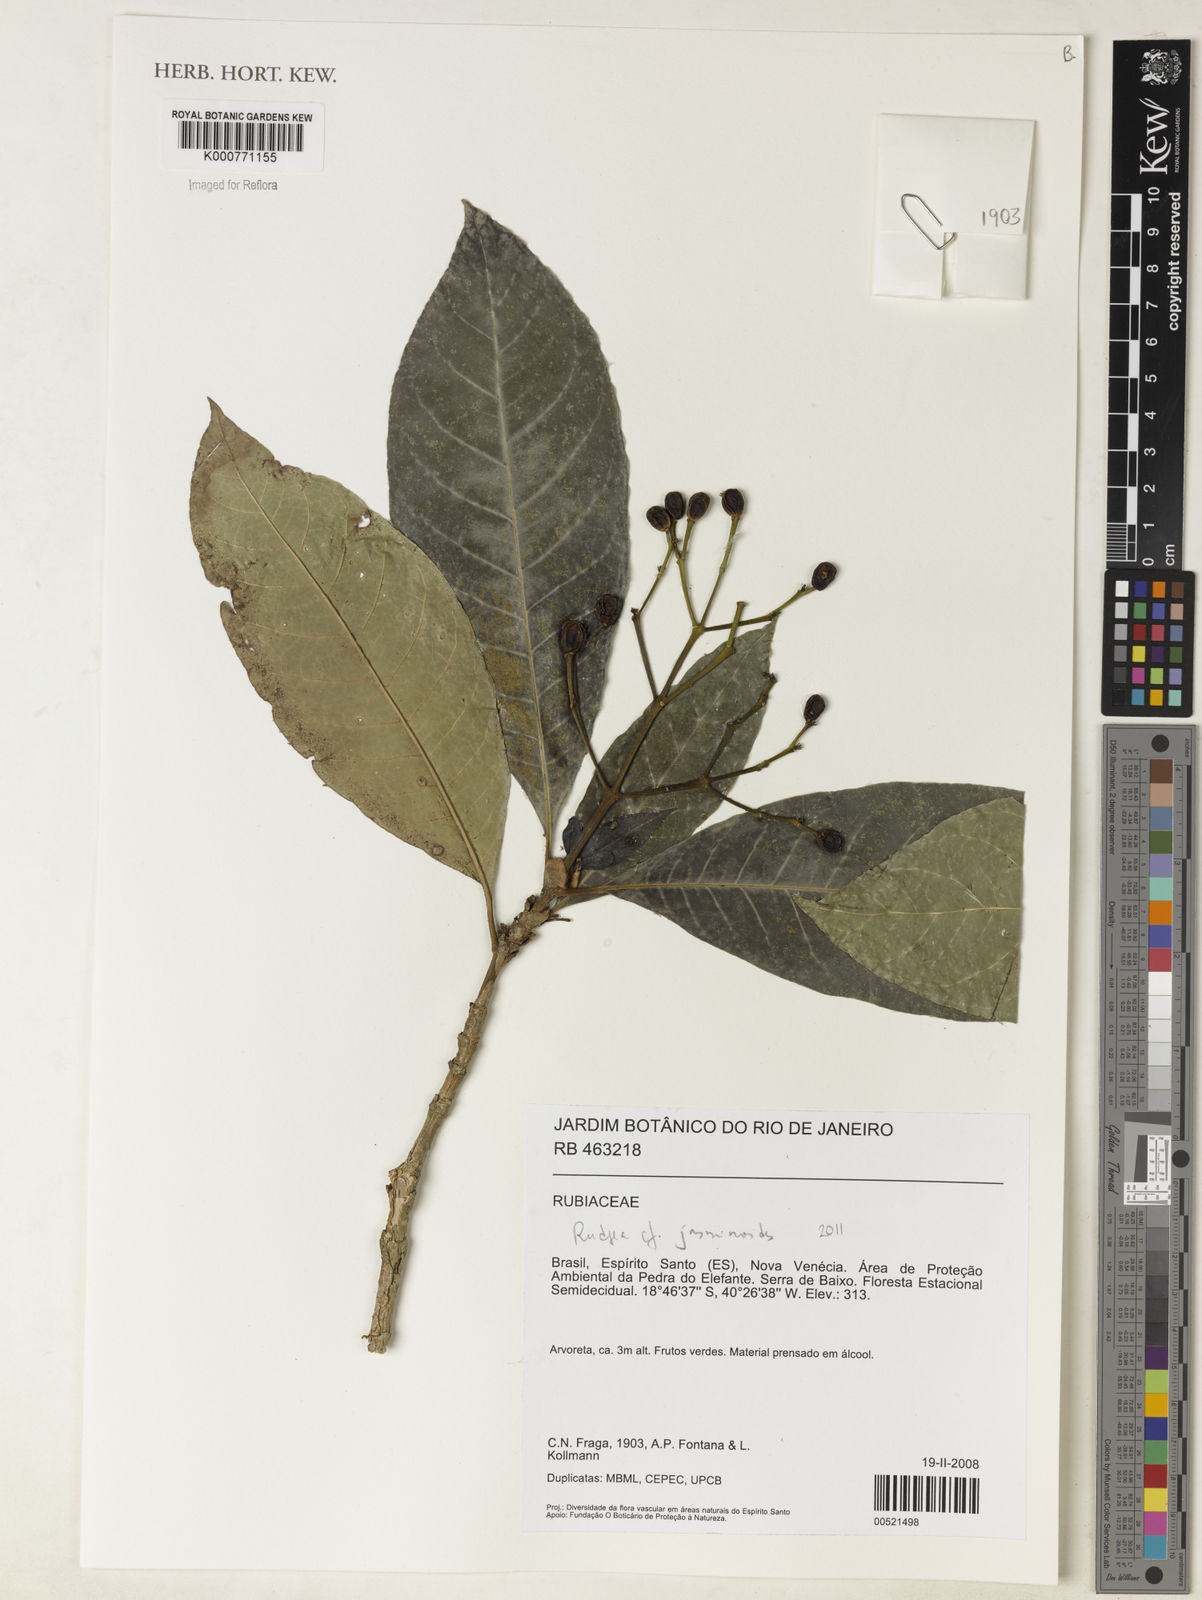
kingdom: Plantae
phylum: Tracheophyta
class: Magnoliopsida
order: Gentianales
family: Rubiaceae
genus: Rudgea
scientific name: Rudgea
